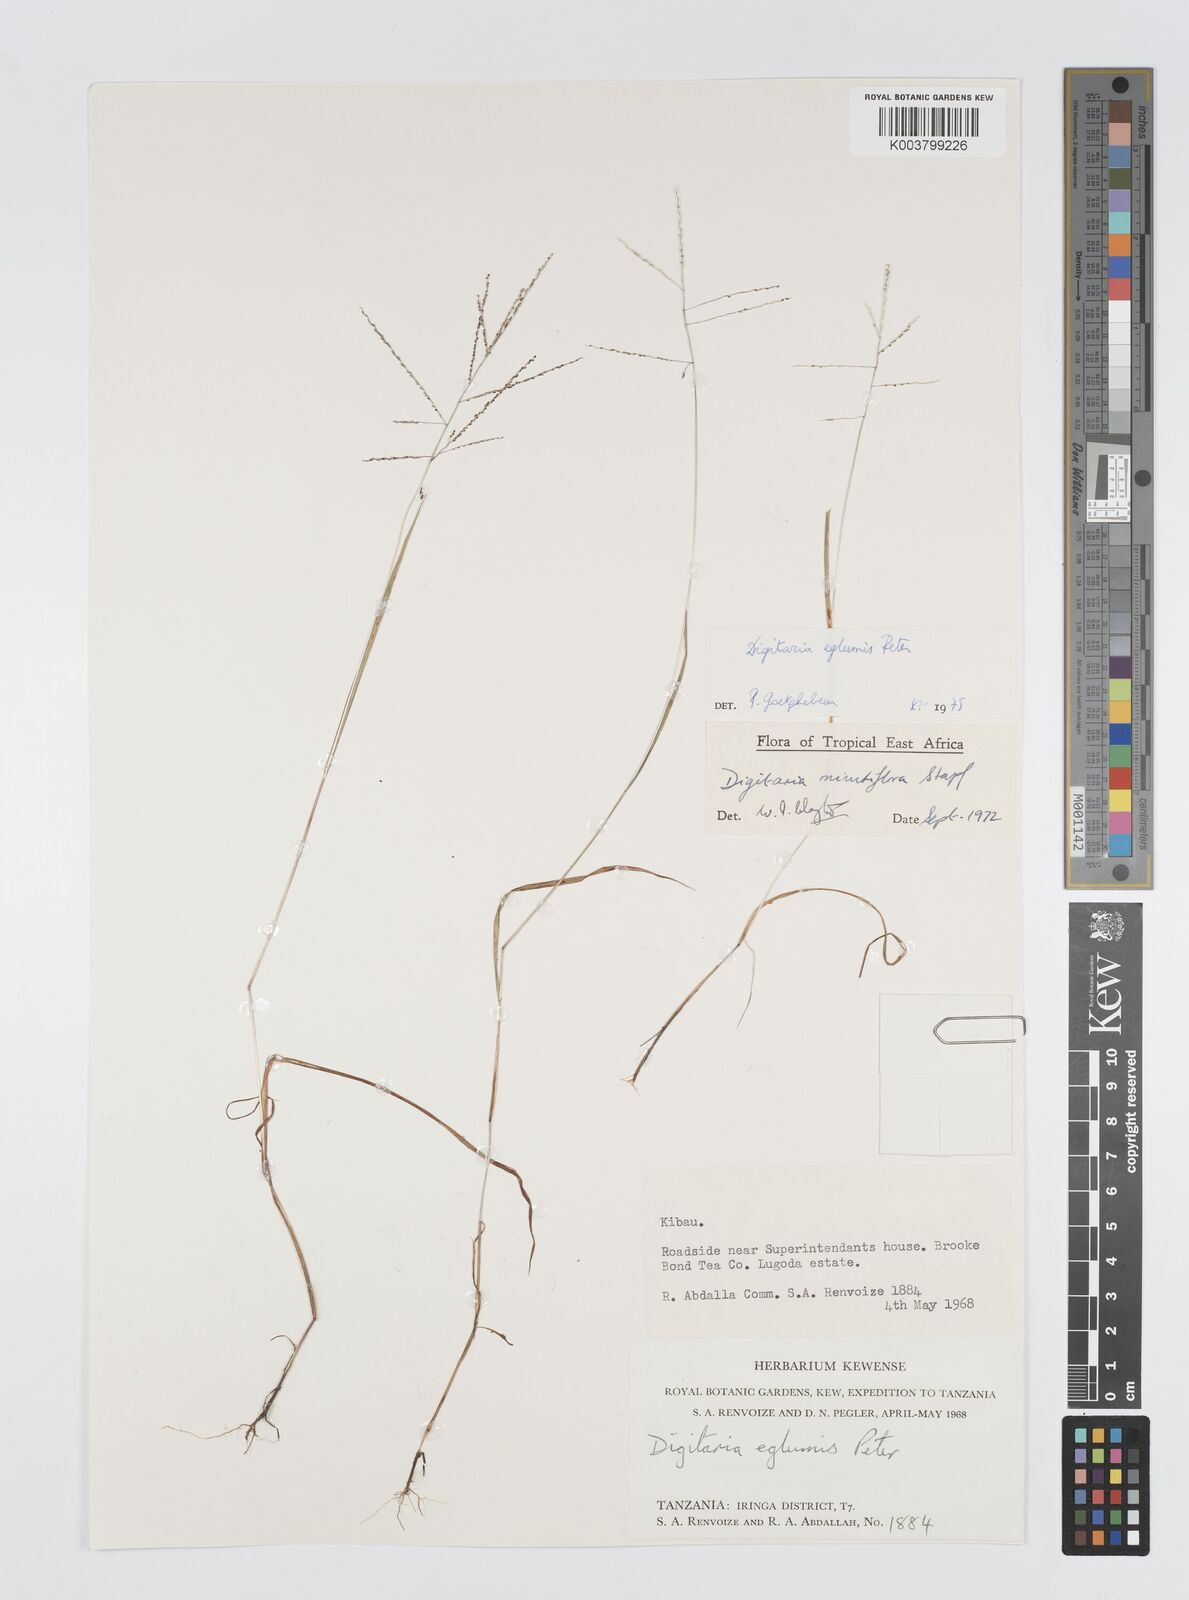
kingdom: Plantae
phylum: Tracheophyta
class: Liliopsida
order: Poales
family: Poaceae
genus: Digitaria
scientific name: Digitaria pseudodiagonalis
